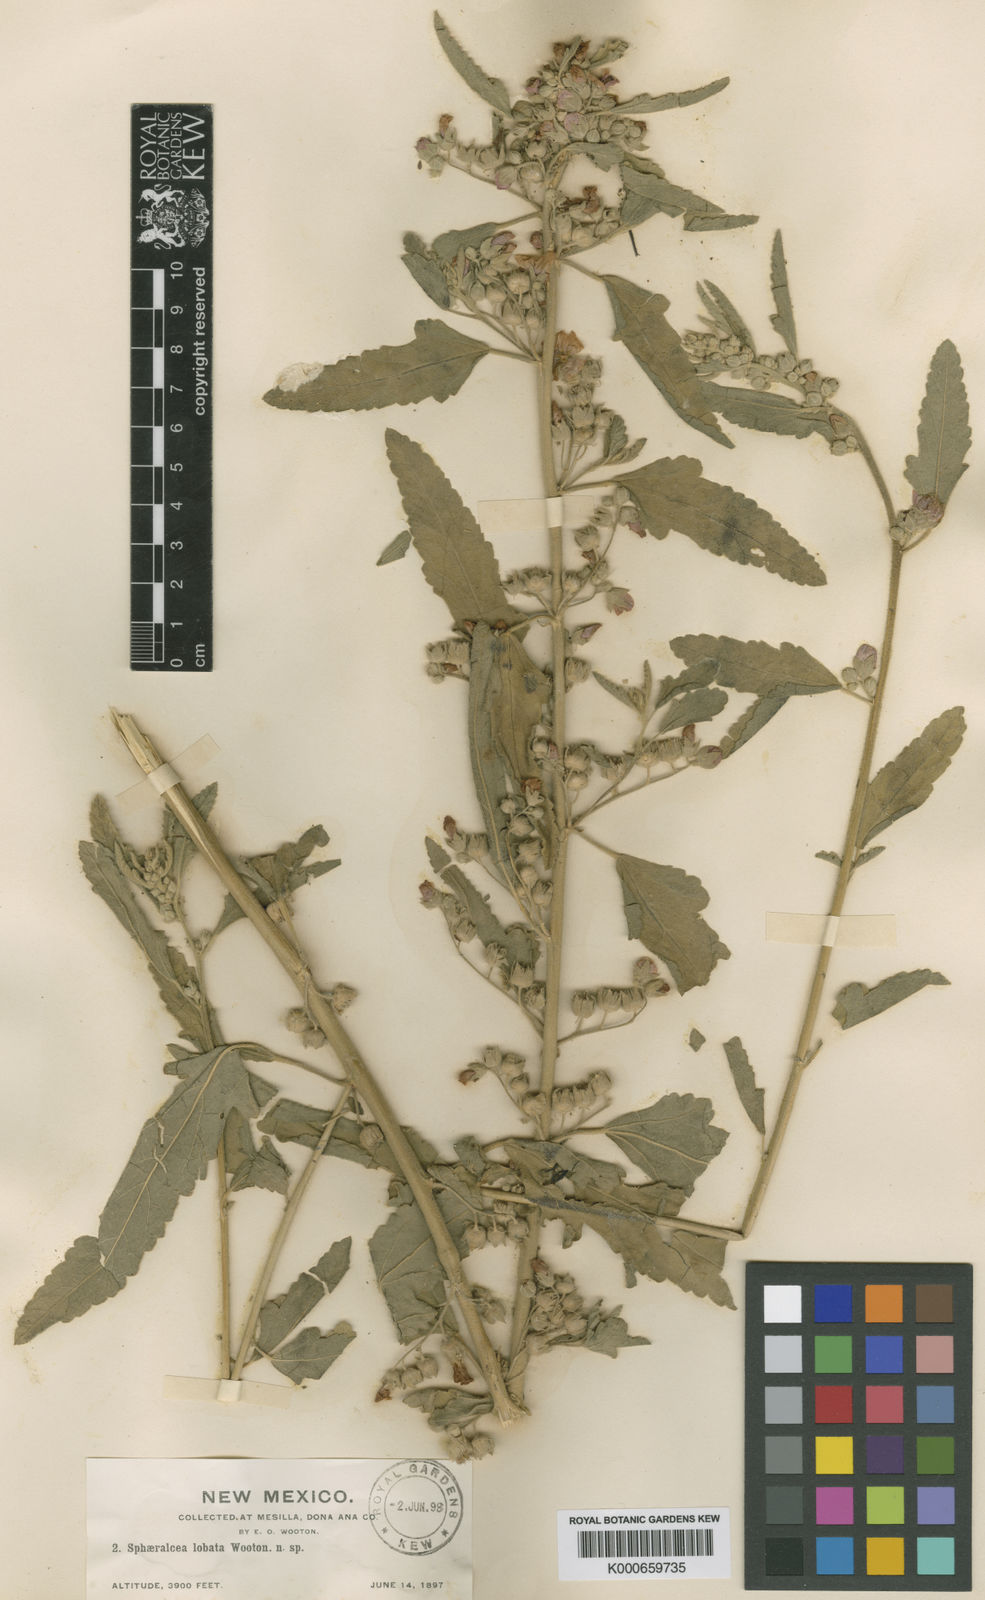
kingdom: Plantae
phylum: Tracheophyta
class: Magnoliopsida
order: Malvales
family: Malvaceae
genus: Sphaeralcea
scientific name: Sphaeralcea angustifolia
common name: Copper globe-mallow
